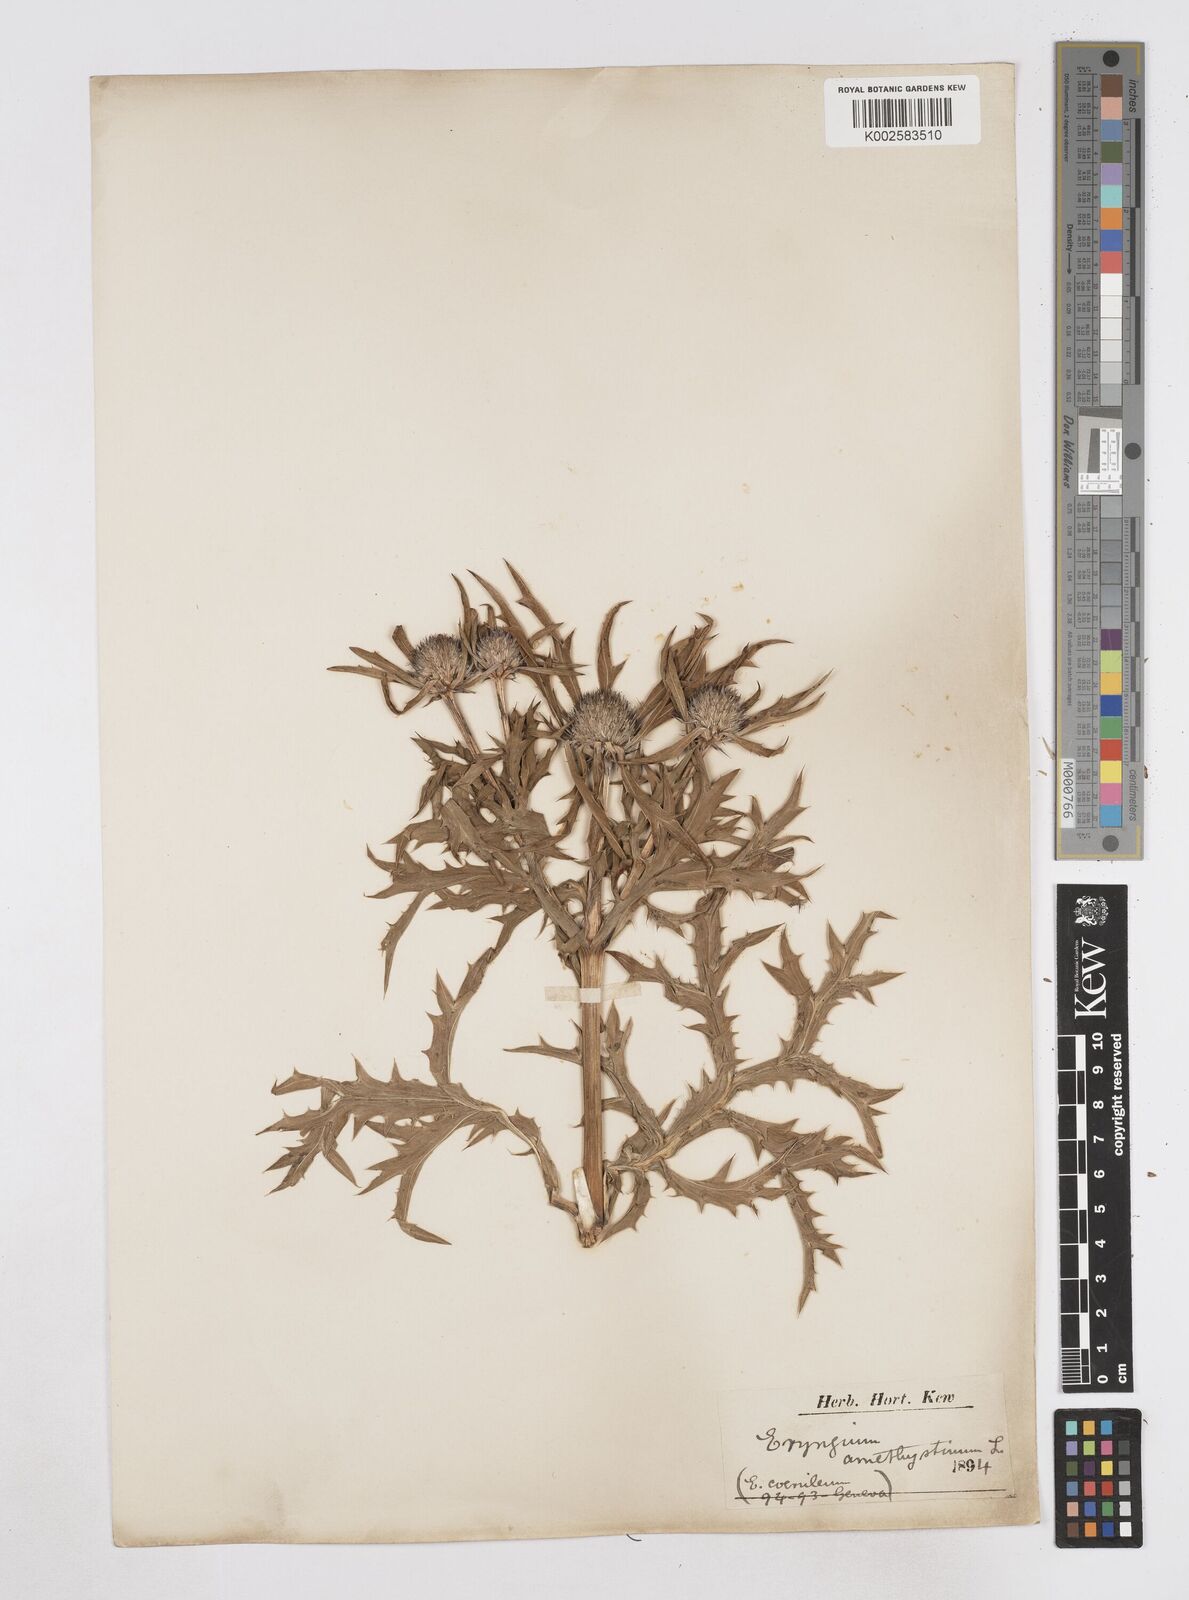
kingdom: Plantae
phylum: Tracheophyta
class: Magnoliopsida
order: Apiales
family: Apiaceae
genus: Eryngium
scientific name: Eryngium amethystinum
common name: Amethyst eryngo
